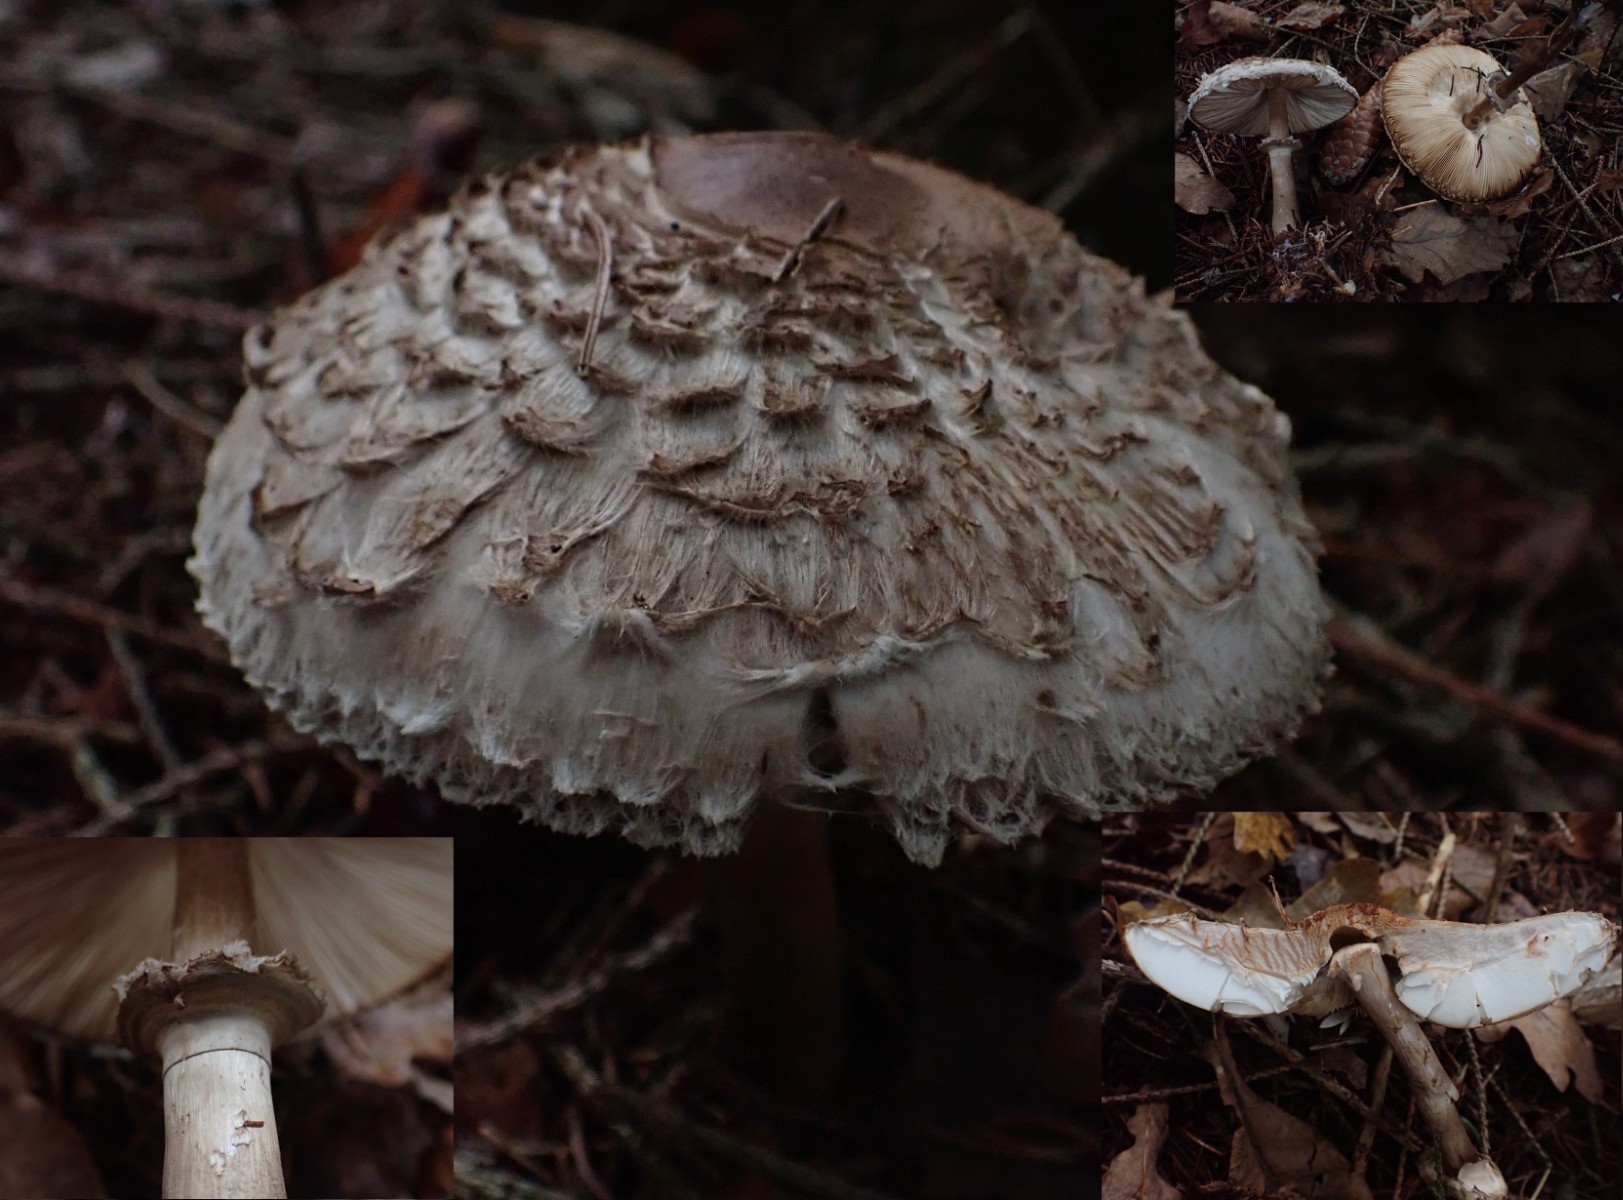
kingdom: Fungi
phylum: Basidiomycota
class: Agaricomycetes
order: Agaricales
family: Agaricaceae
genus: Chlorophyllum
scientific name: Chlorophyllum olivieri
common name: almindelig rabarberhat
